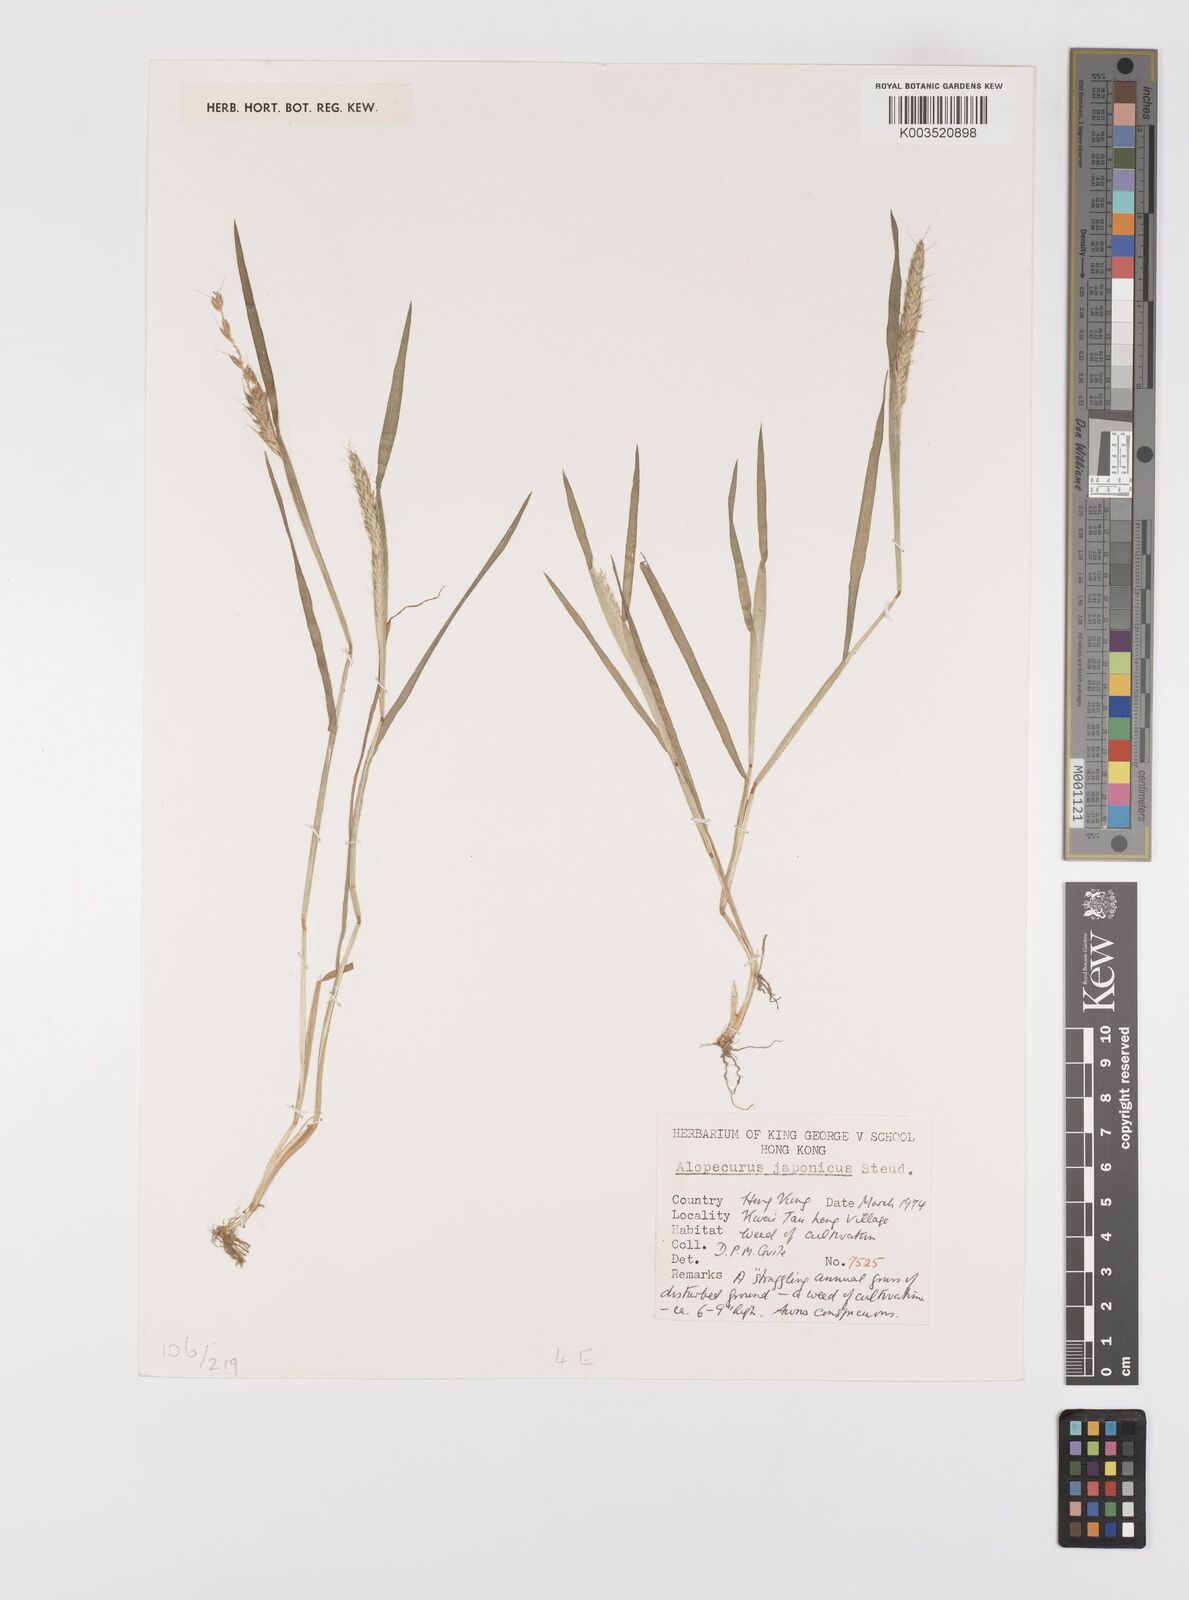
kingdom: Plantae
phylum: Tracheophyta
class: Liliopsida
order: Poales
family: Poaceae
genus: Alopecurus
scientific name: Alopecurus japonicus
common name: Japanese foxtail
